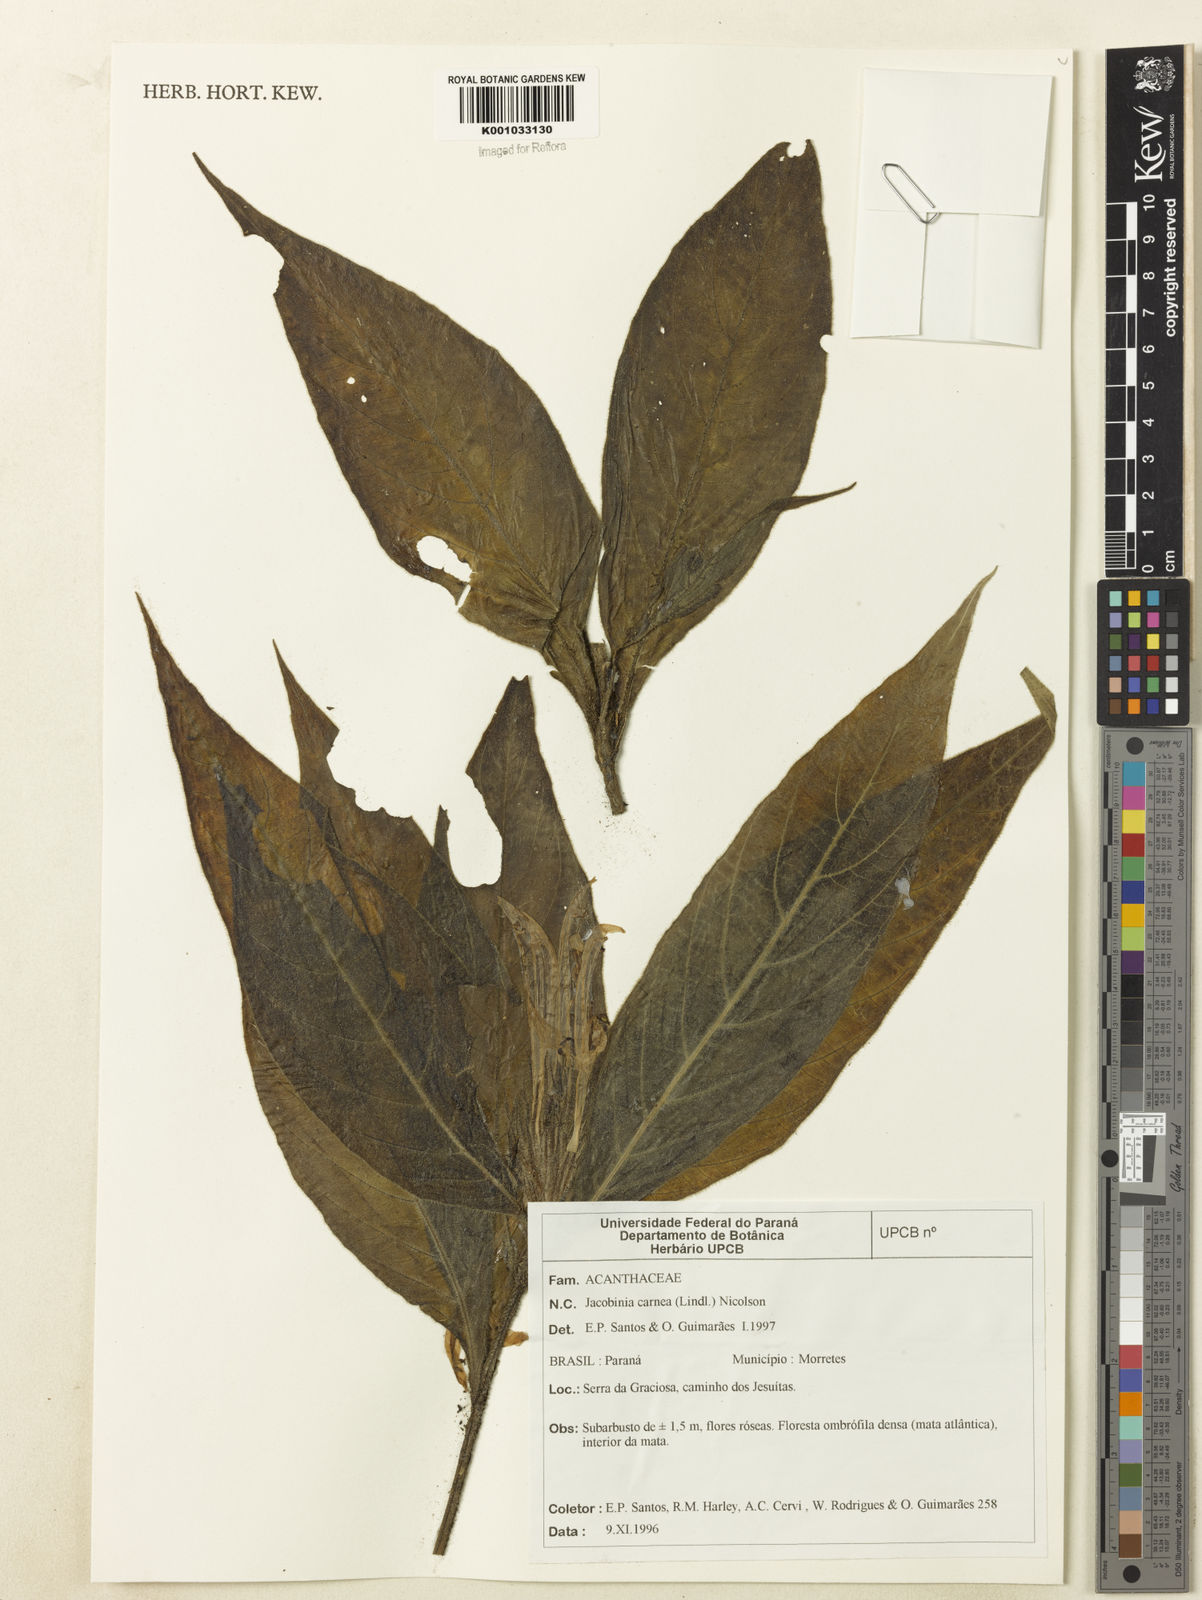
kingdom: Plantae
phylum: Tracheophyta
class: Magnoliopsida
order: Lamiales
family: Acanthaceae
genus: Justicia
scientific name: Justicia carnea
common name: Brazilian-plume
